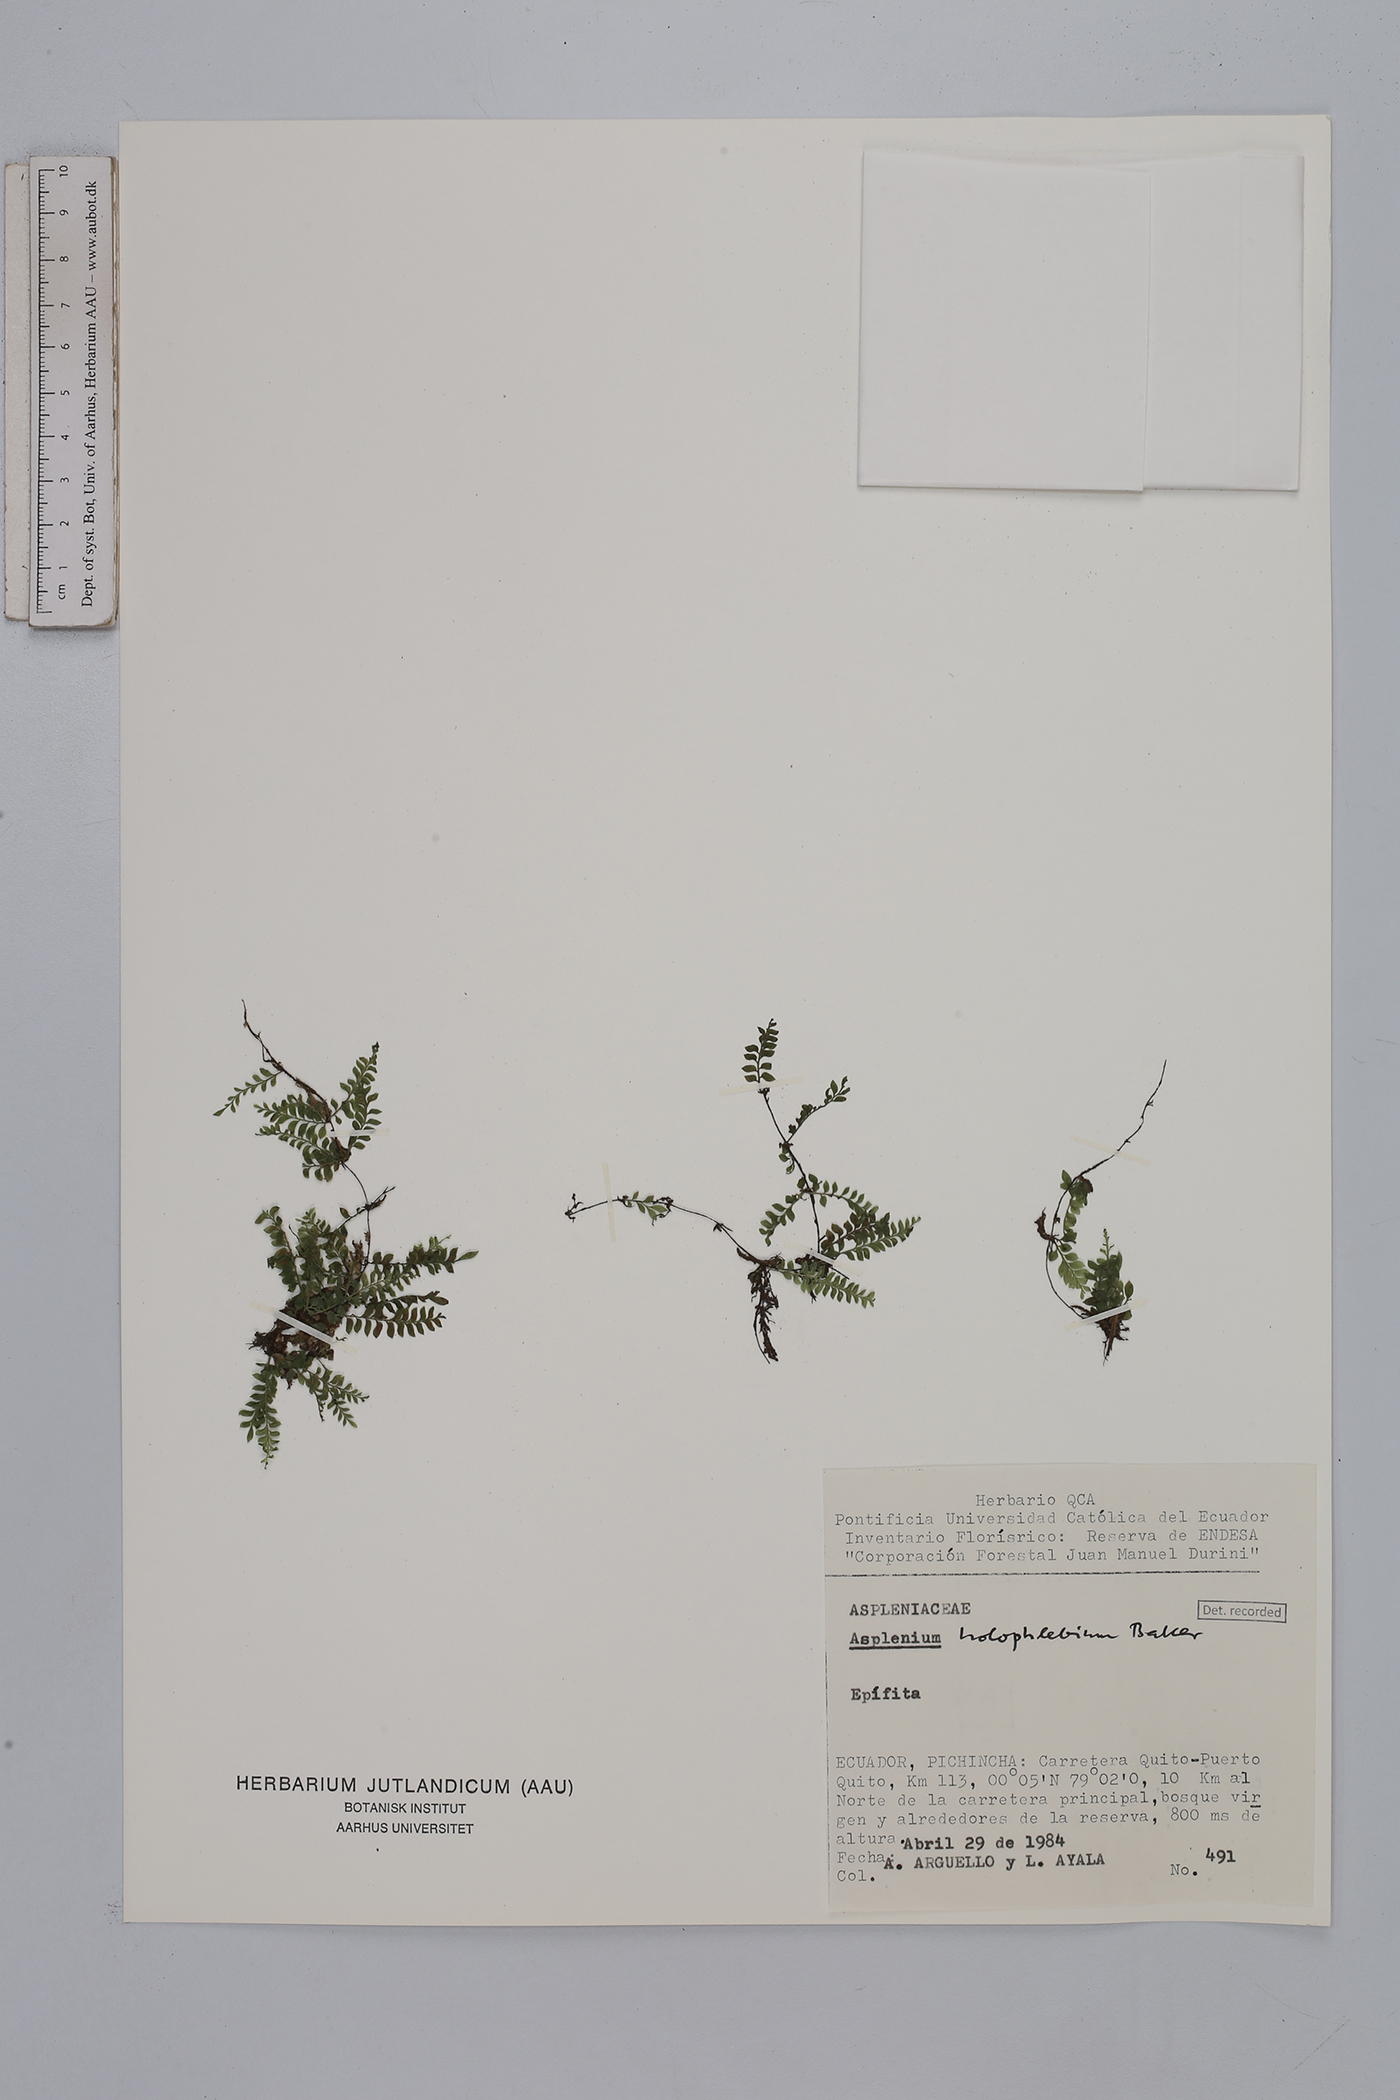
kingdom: Plantae
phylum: Tracheophyta
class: Polypodiopsida
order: Polypodiales
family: Aspleniaceae
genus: Asplenium
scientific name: Asplenium holophlebium
